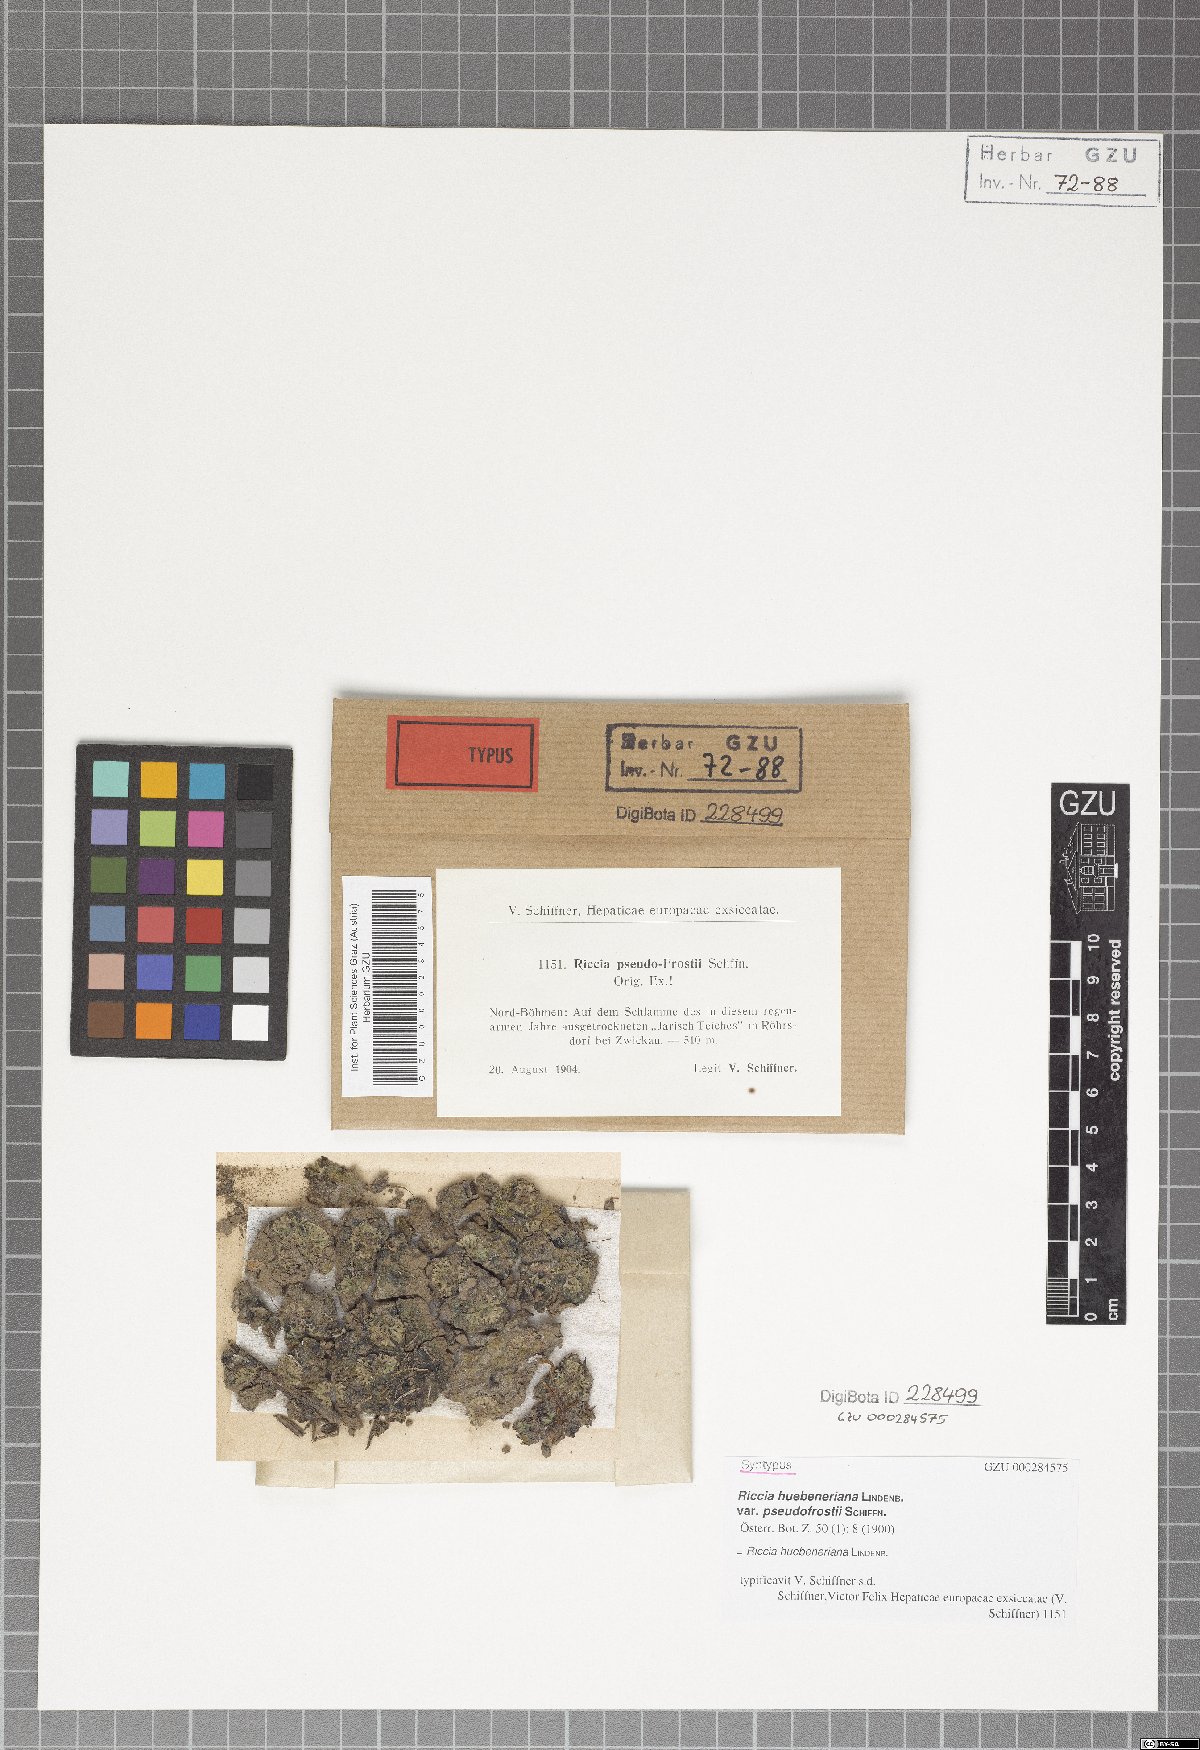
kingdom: Plantae
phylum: Marchantiophyta
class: Marchantiopsida
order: Marchantiales
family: Ricciaceae
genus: Riccia
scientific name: Riccia huebeneriana
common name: Violet crystalwort
